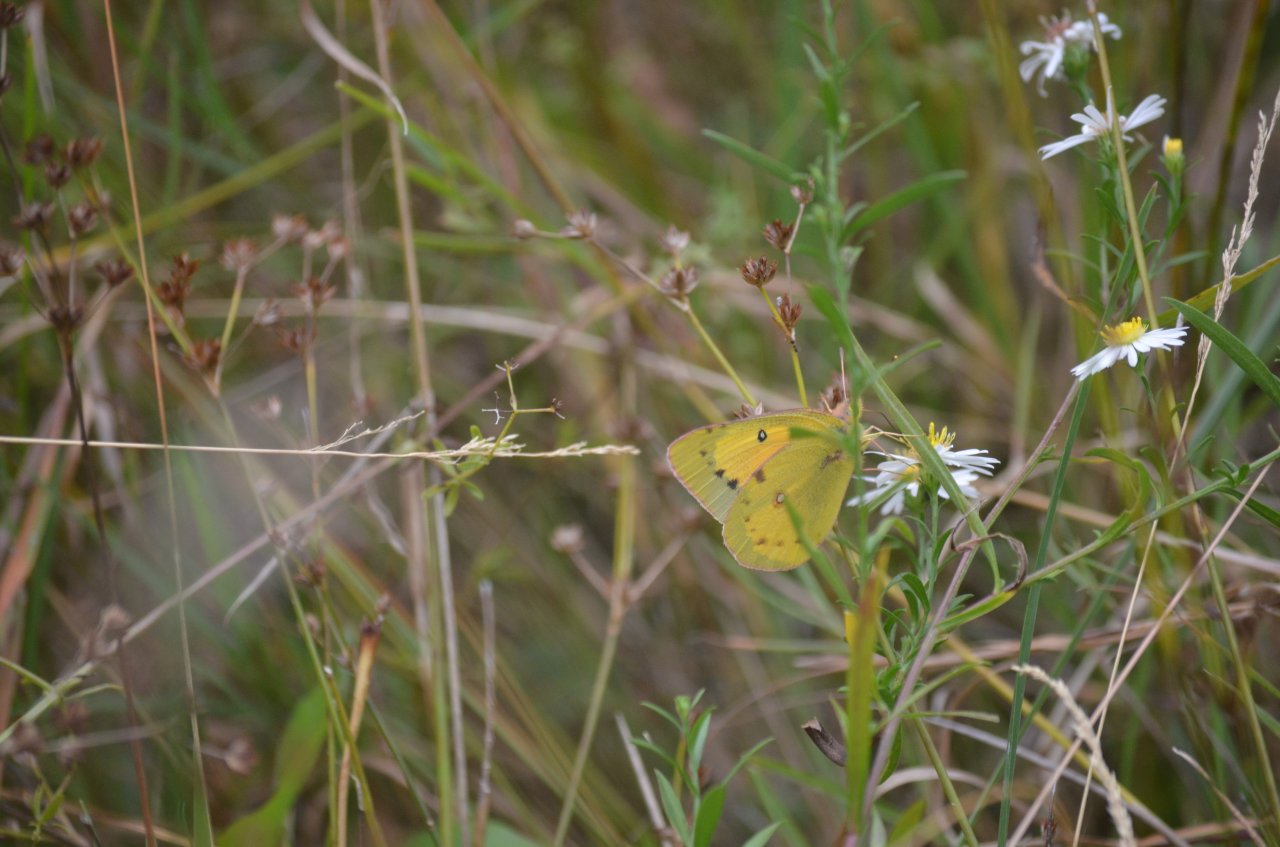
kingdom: Animalia
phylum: Arthropoda
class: Insecta
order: Lepidoptera
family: Pieridae
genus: Colias
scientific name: Colias eurytheme
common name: Orange Sulphur
